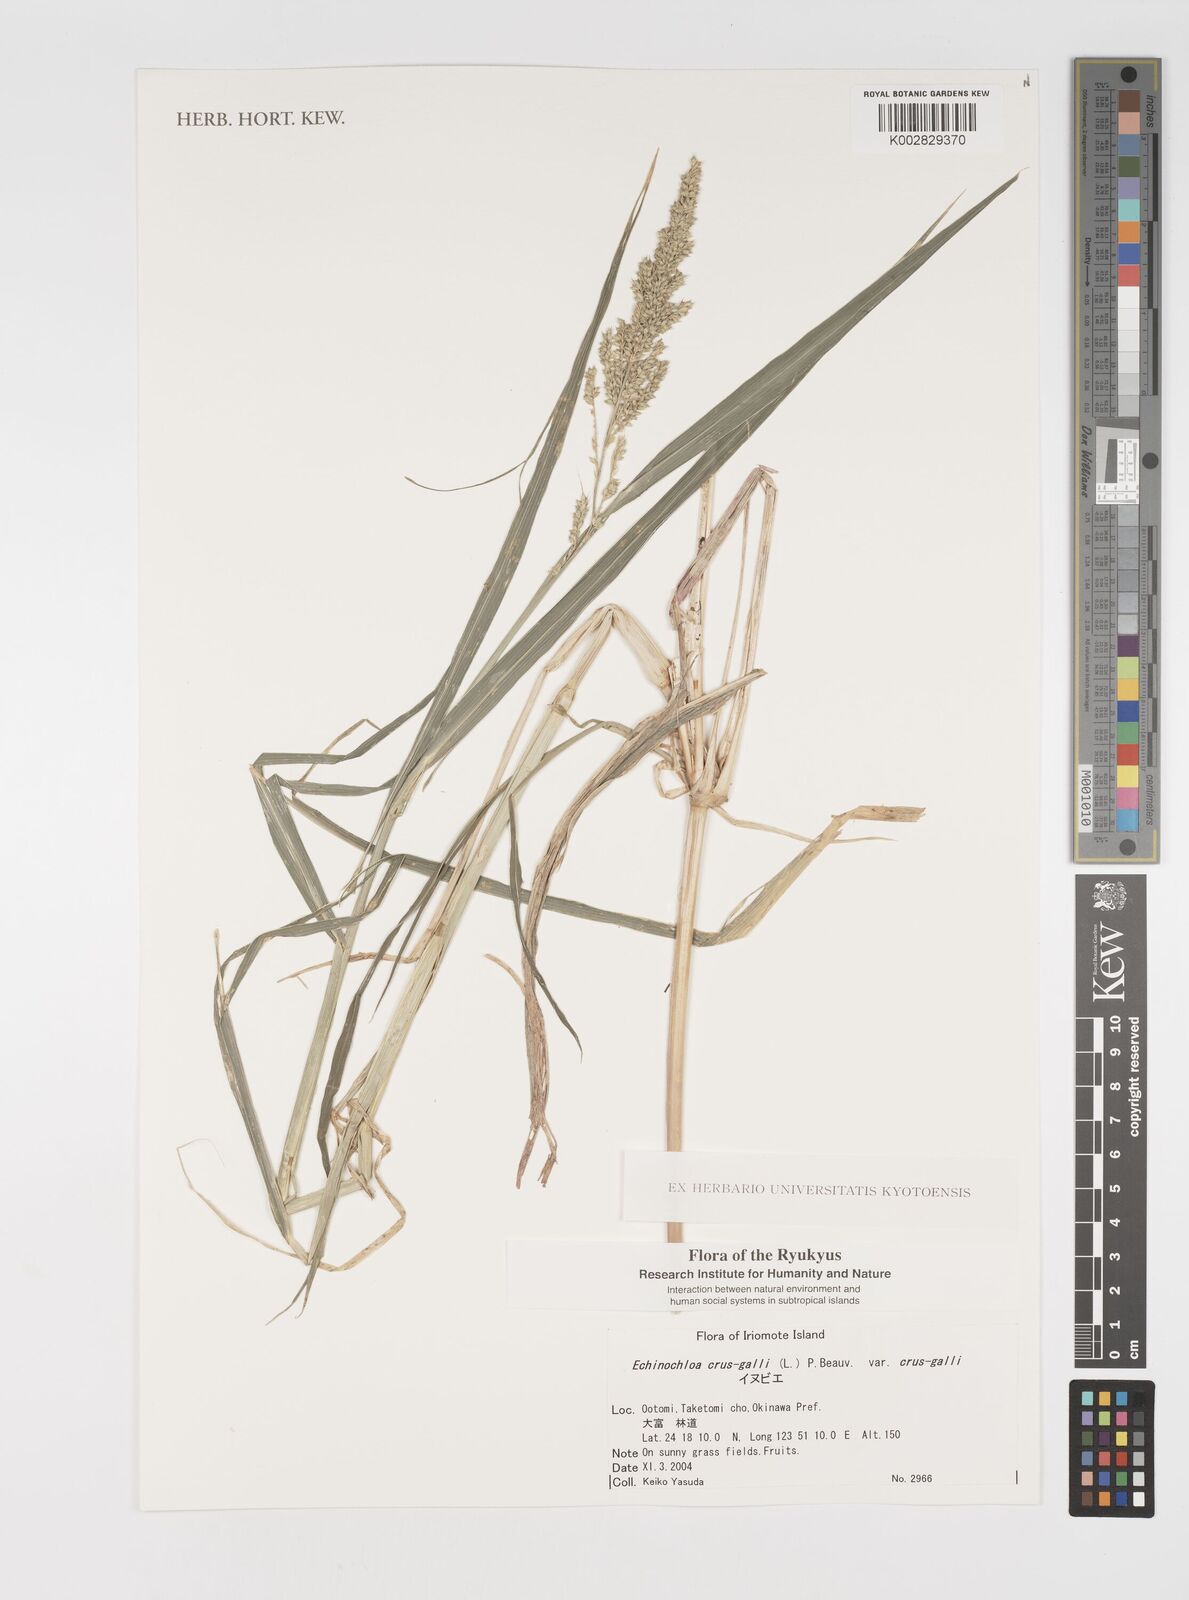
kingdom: Plantae
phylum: Tracheophyta
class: Liliopsida
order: Poales
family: Poaceae
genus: Echinochloa
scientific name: Echinochloa crus-galli
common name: Cockspur
